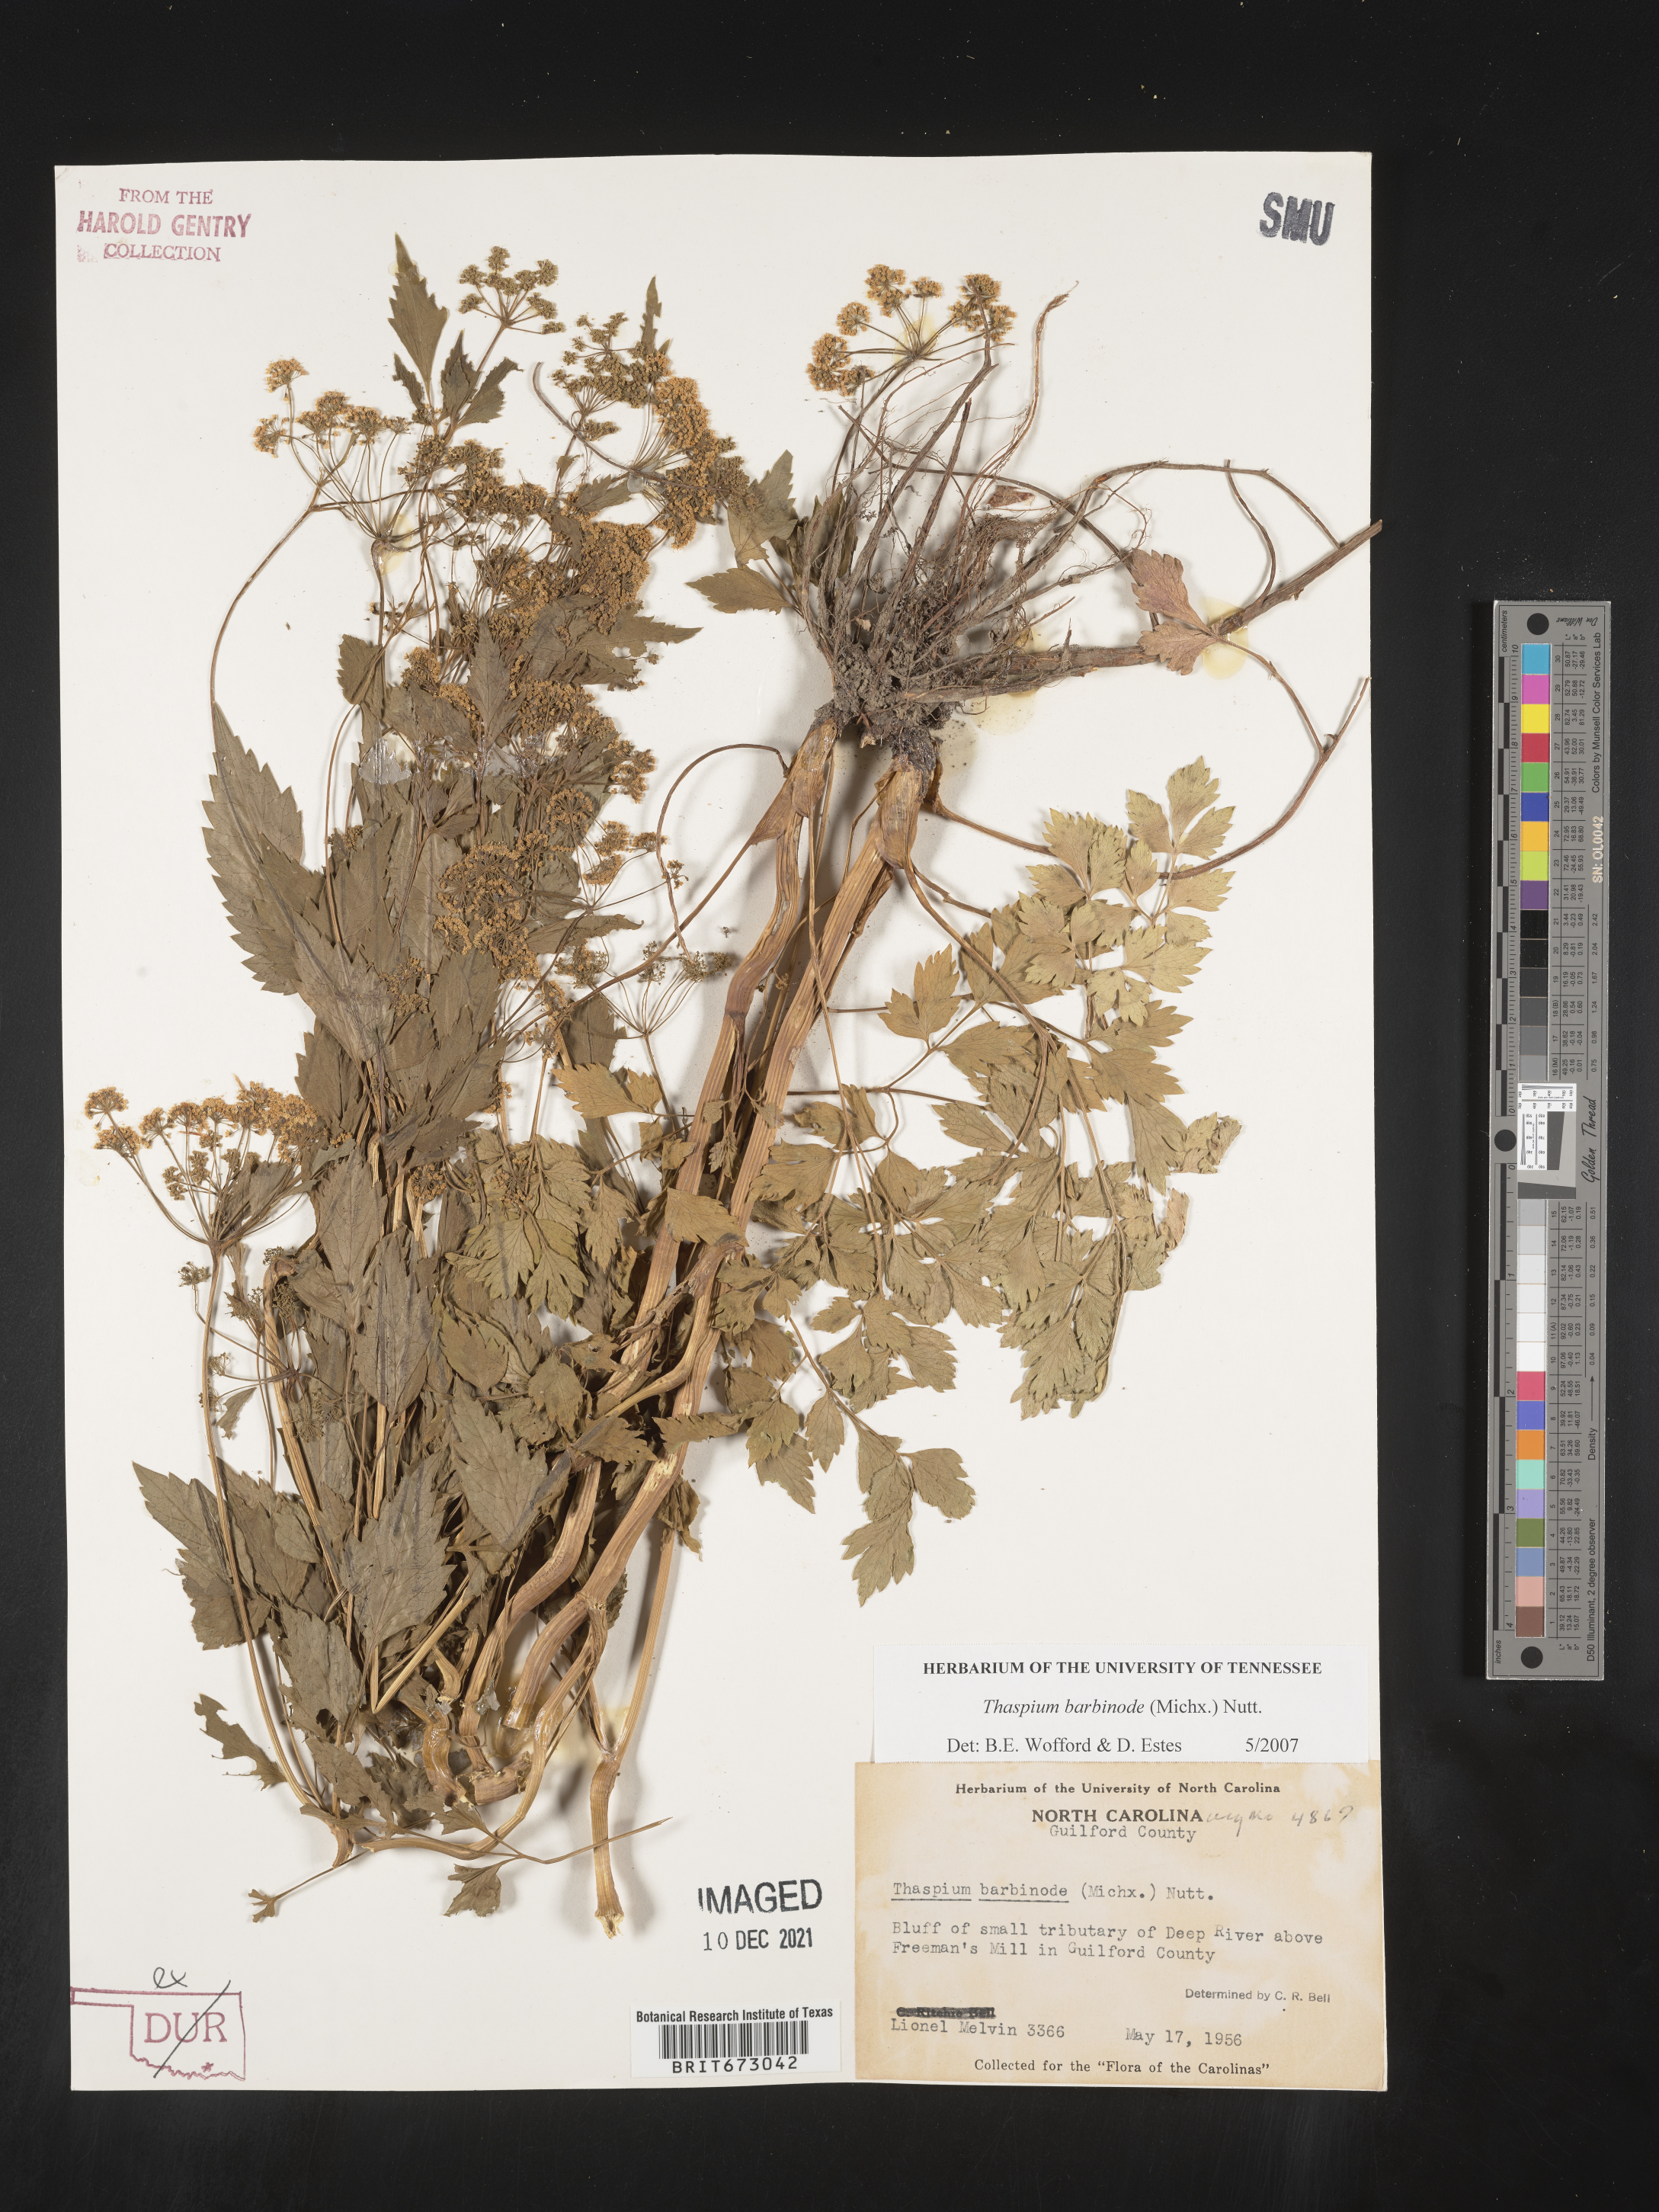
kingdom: Plantae
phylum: Tracheophyta
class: Magnoliopsida
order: Apiales
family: Apiaceae
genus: Thaspium
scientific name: Thaspium barbinode
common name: Bearded meadow-parsnip
